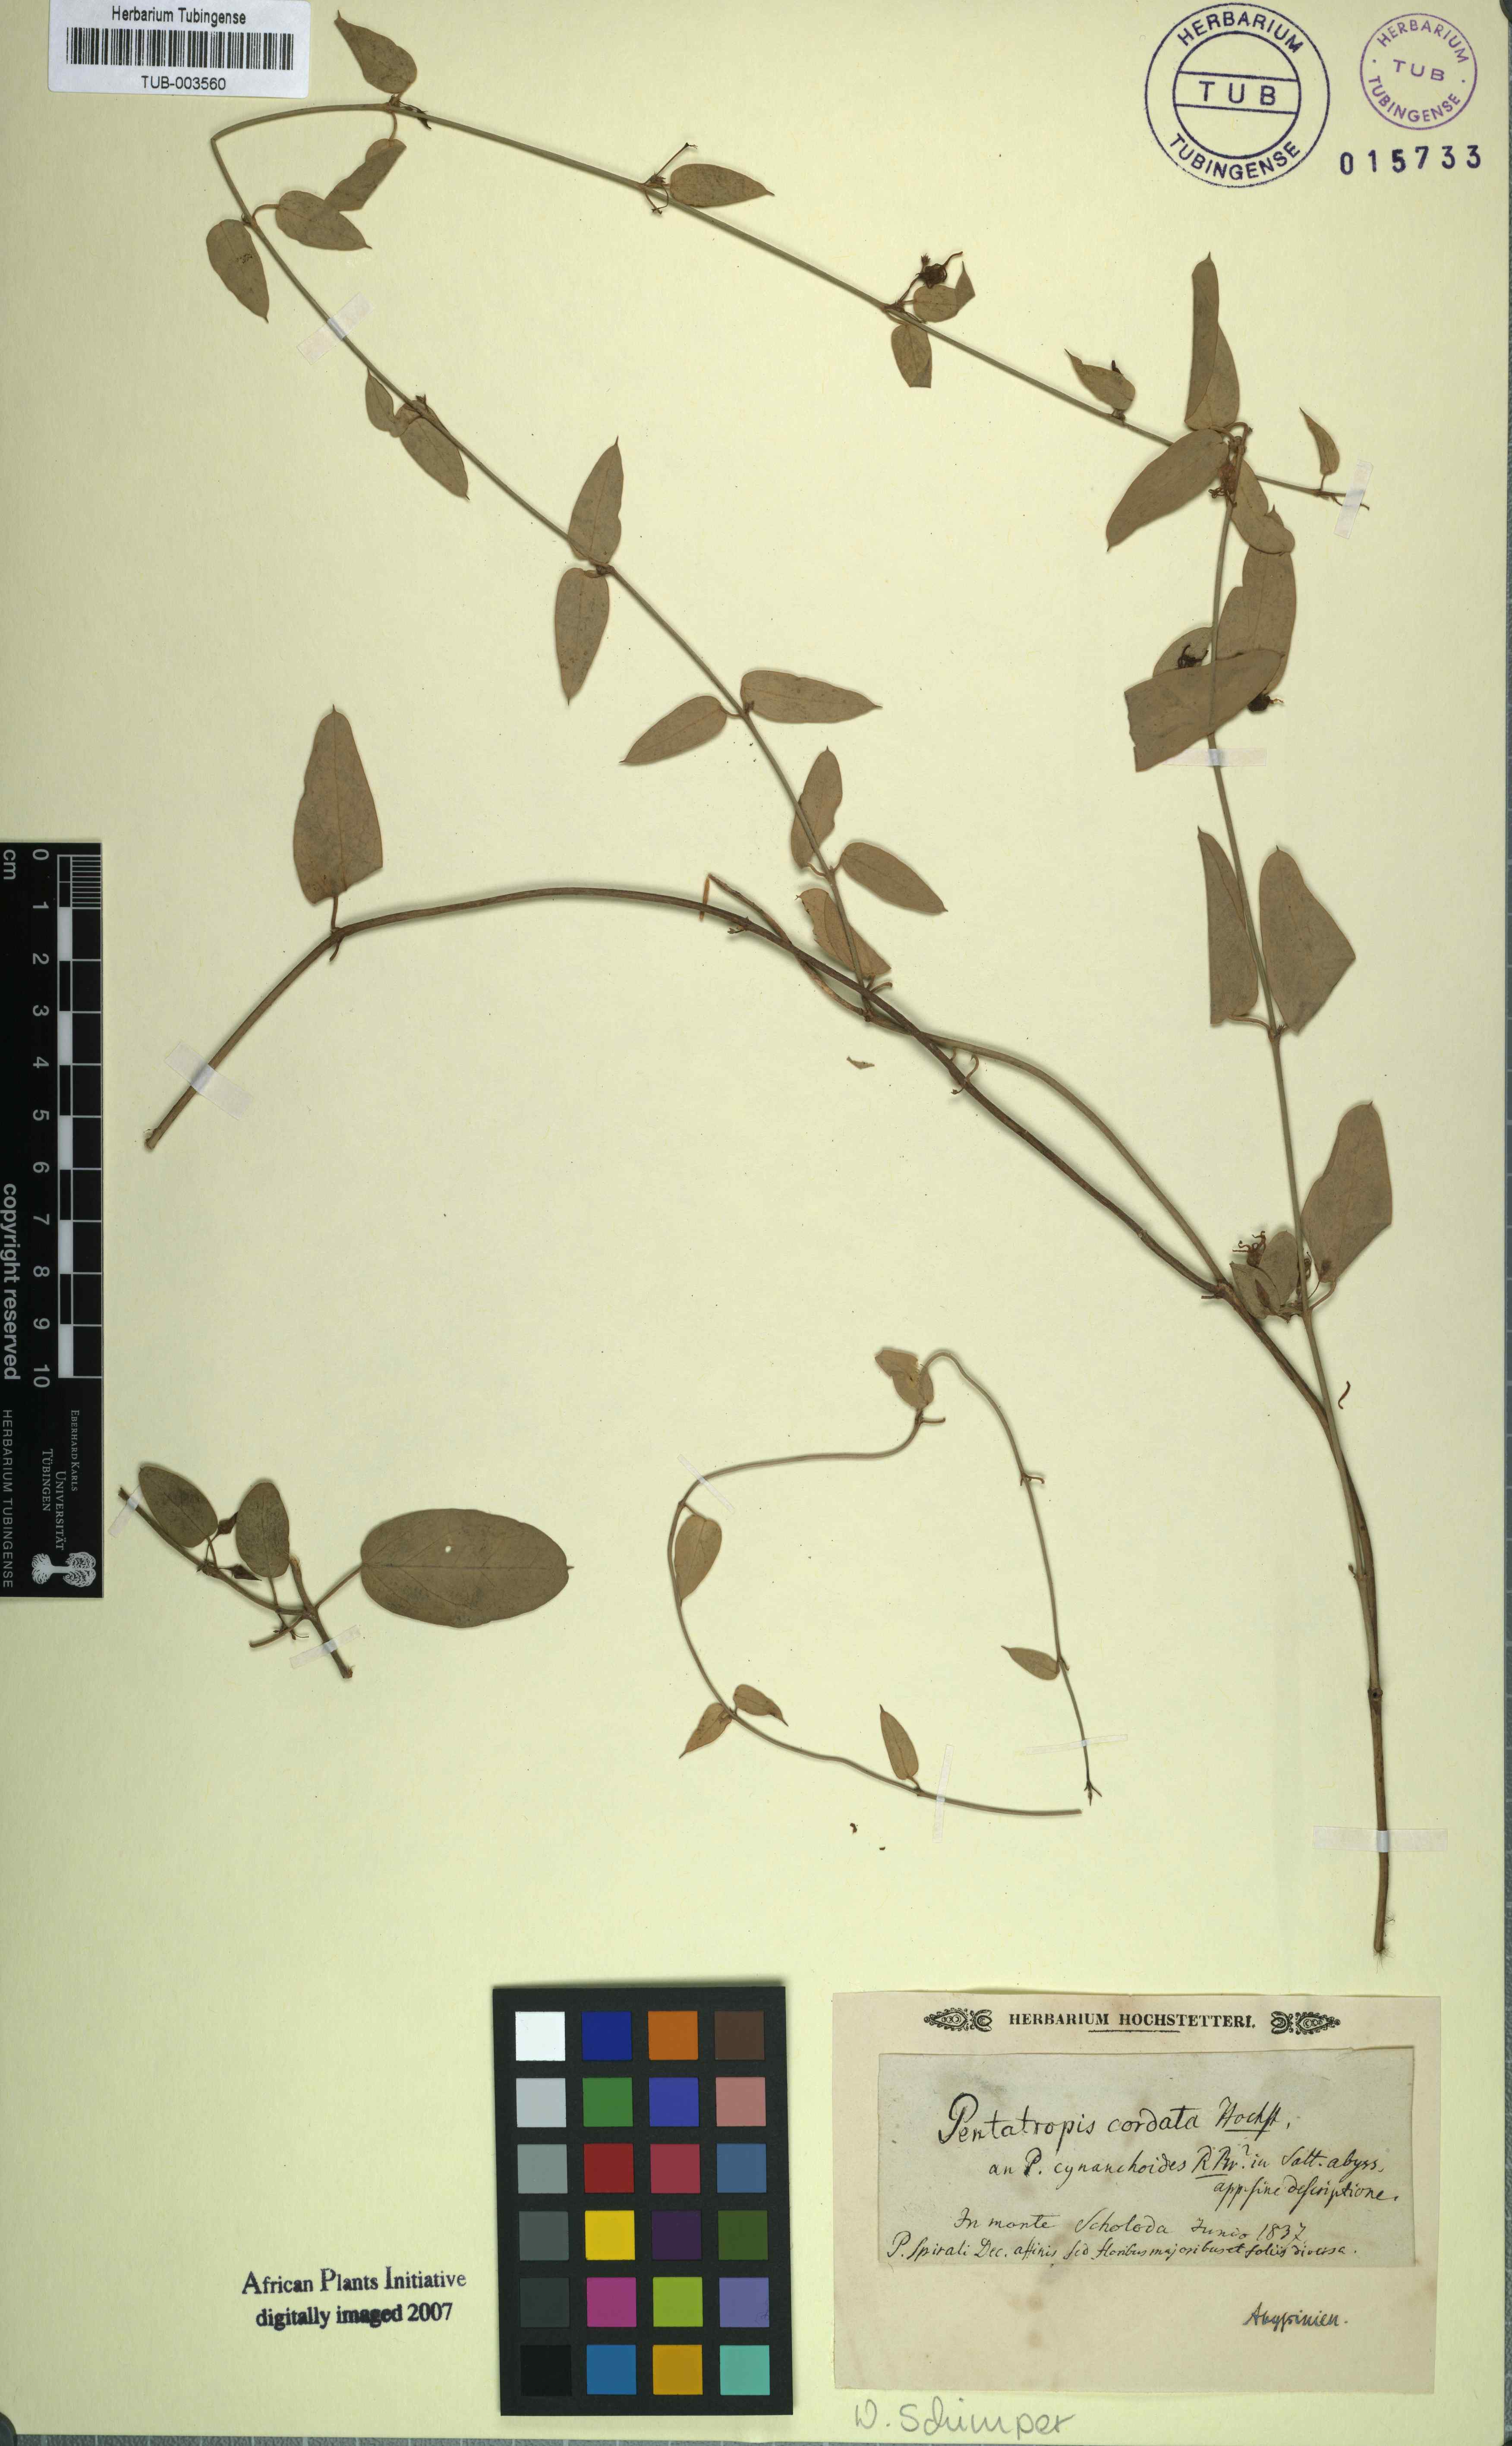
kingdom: Plantae
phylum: Tracheophyta
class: Magnoliopsida
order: Gentianales
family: Apocynaceae
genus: Pentatropis
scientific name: Pentatropis
